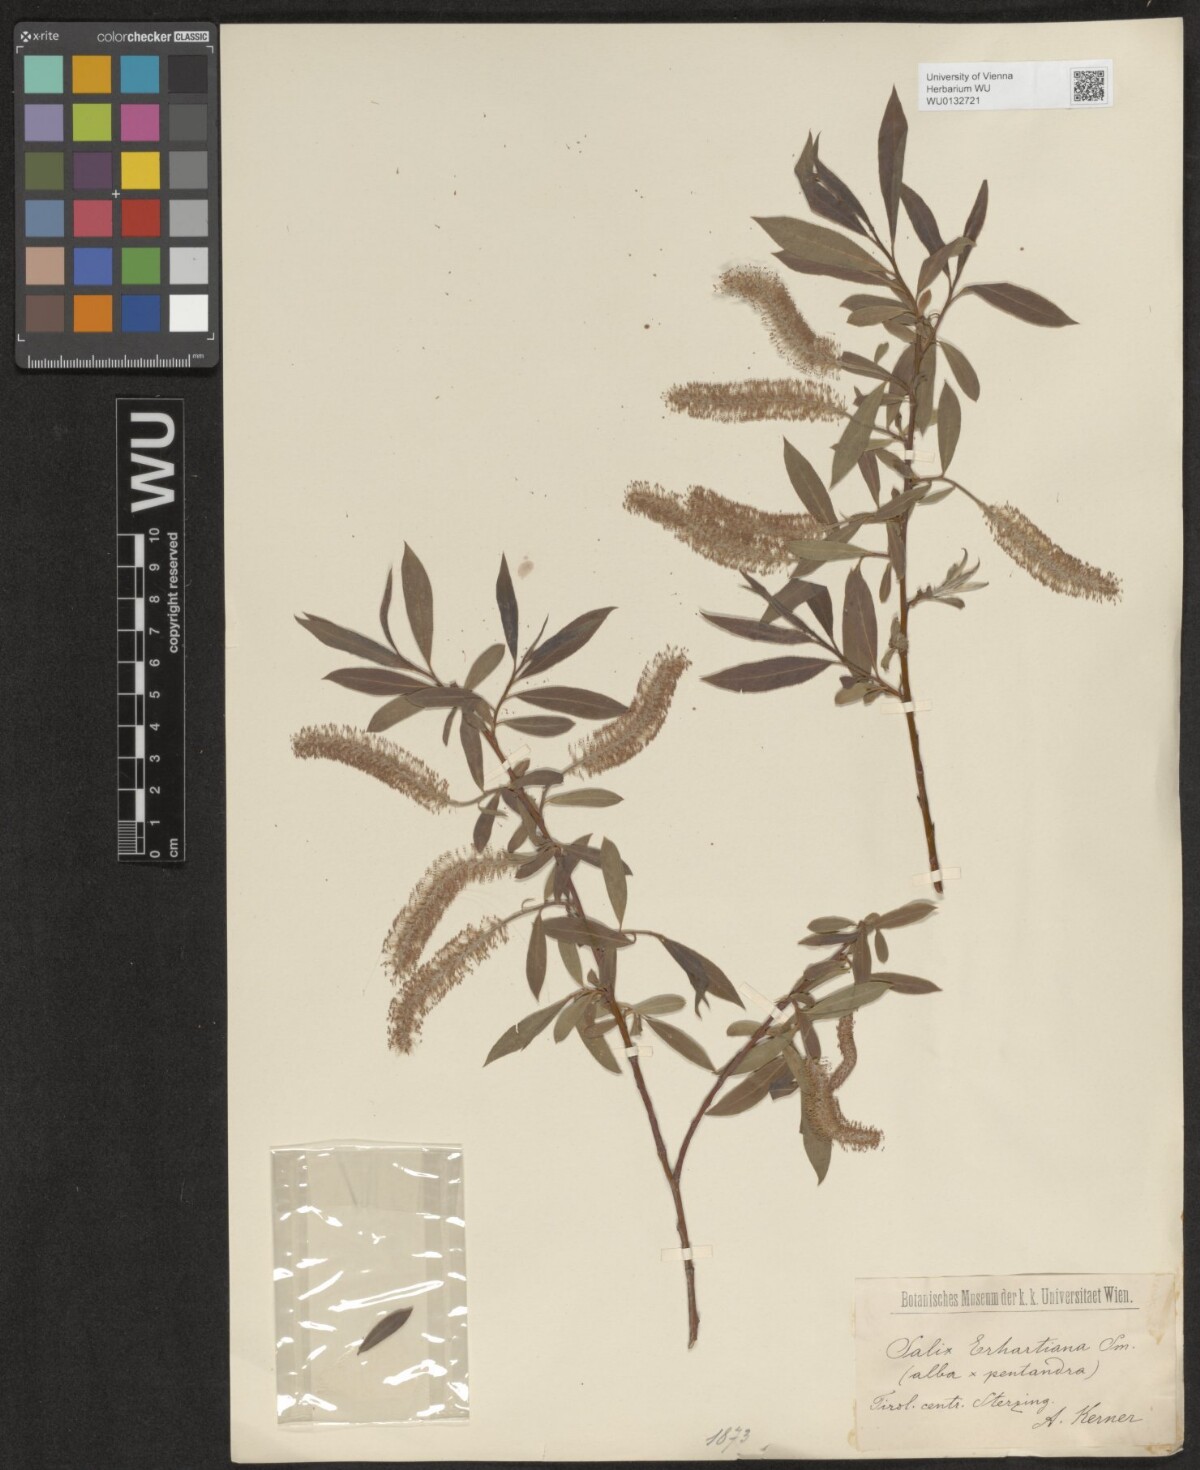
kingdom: Plantae
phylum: Tracheophyta
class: Magnoliopsida
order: Malpighiales
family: Salicaceae
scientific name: Salicaceae
